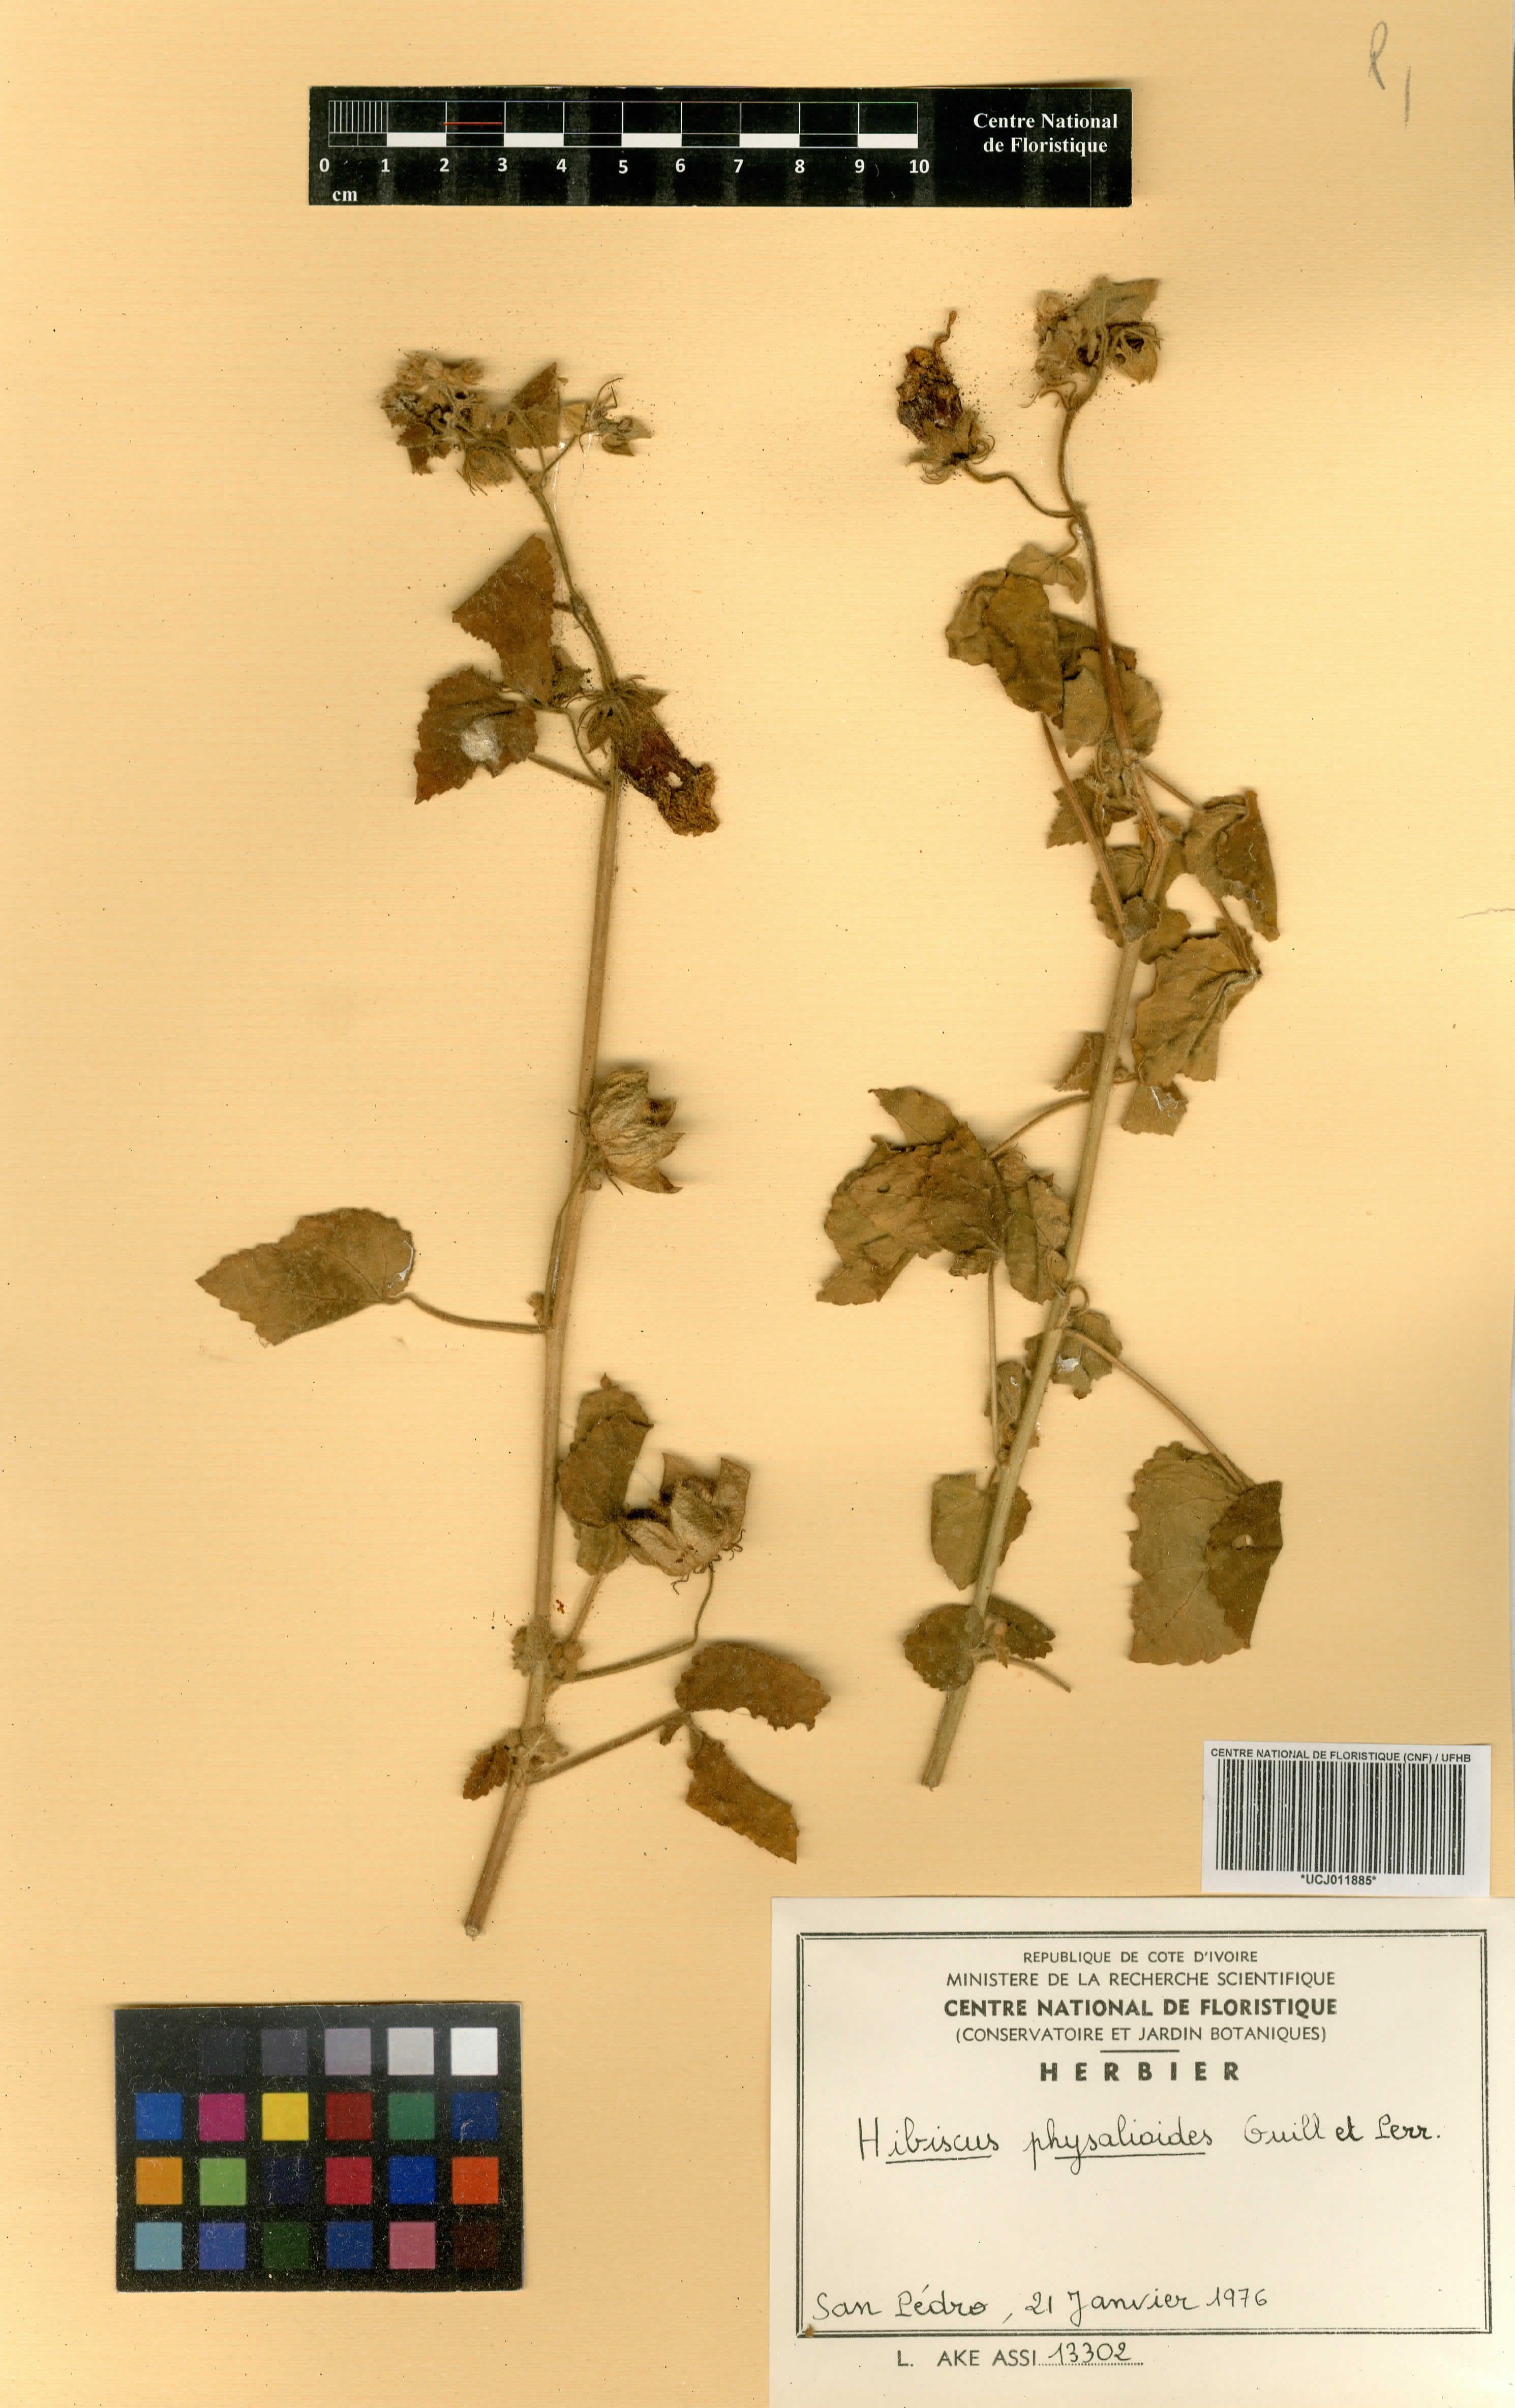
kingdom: Plantae
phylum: Tracheophyta
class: Magnoliopsida
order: Malvales
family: Malvaceae
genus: Hibiscus
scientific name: Hibiscus physaloides
